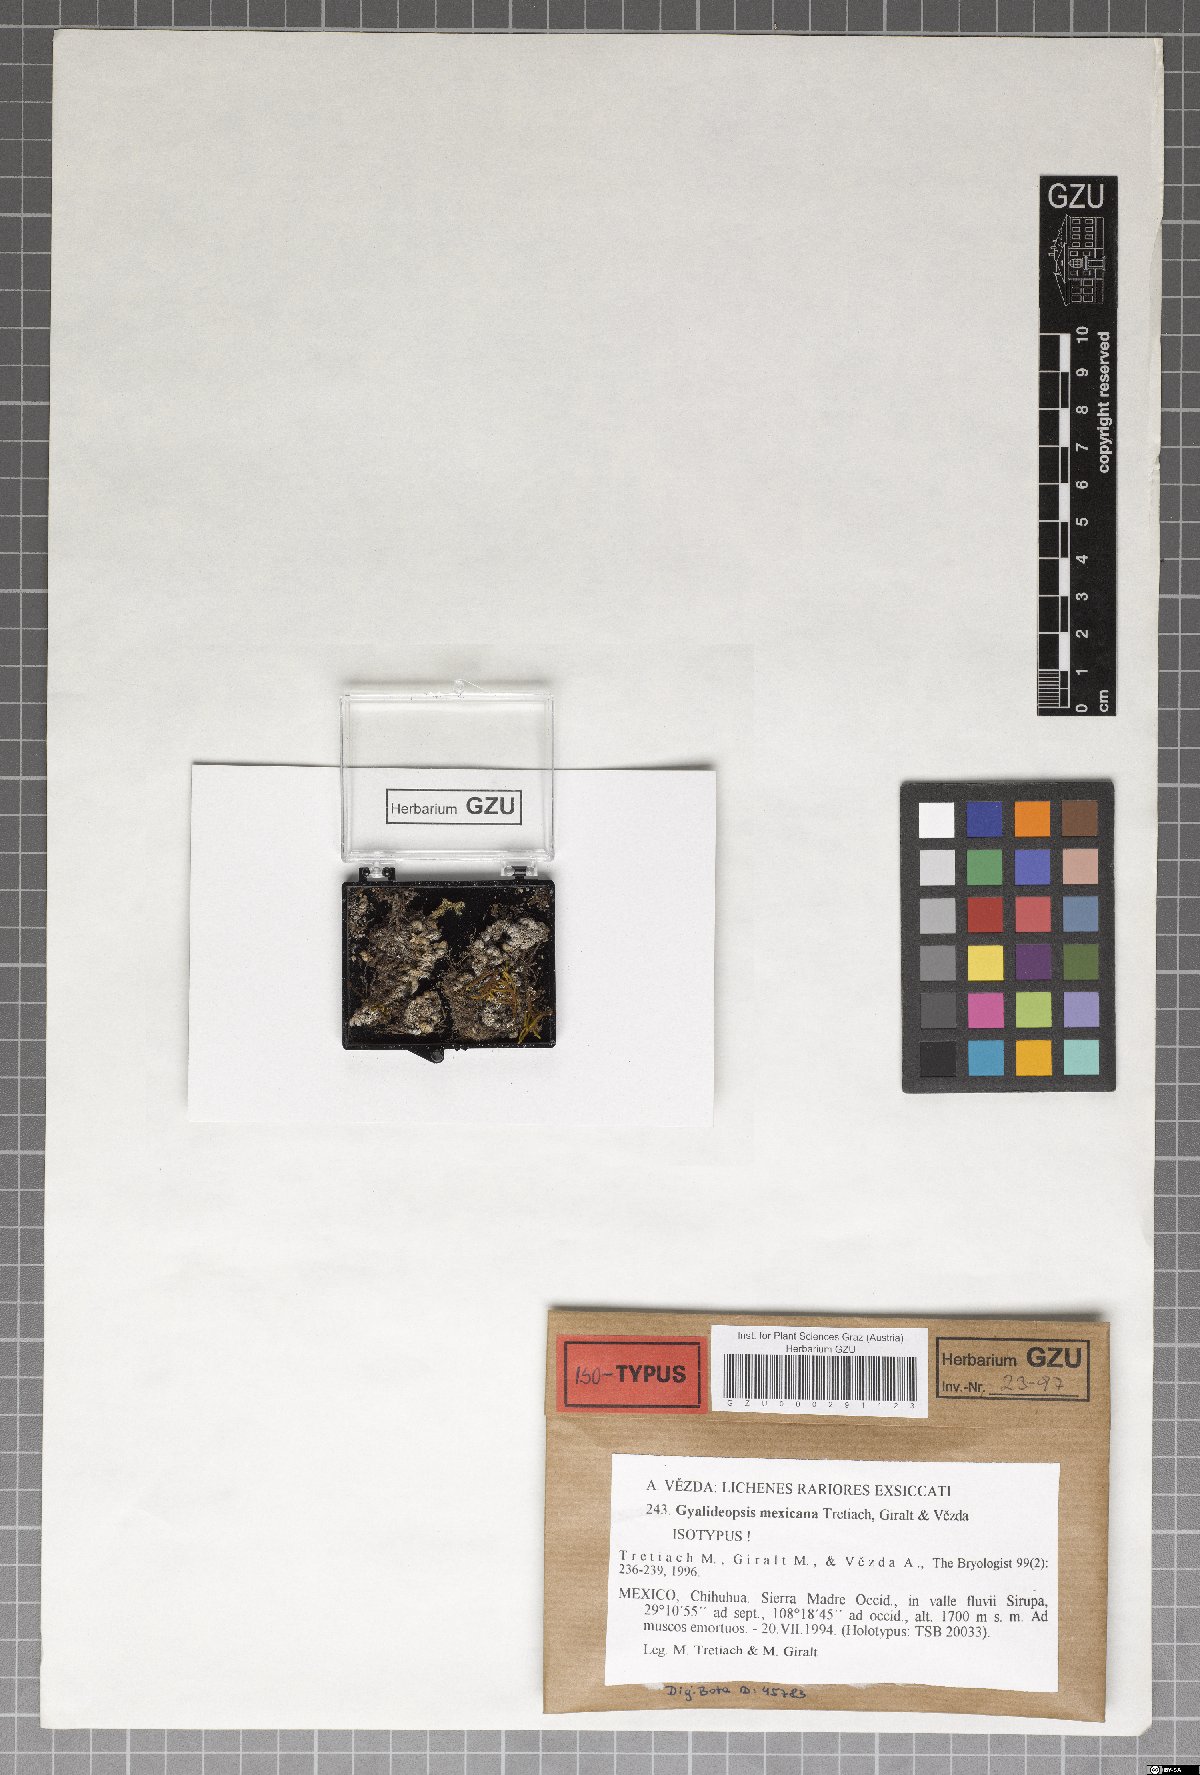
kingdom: Fungi
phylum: Ascomycota
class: Lecanoromycetes
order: Ostropales
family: Gomphillaceae
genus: Gyalideopsis
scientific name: Gyalideopsis
